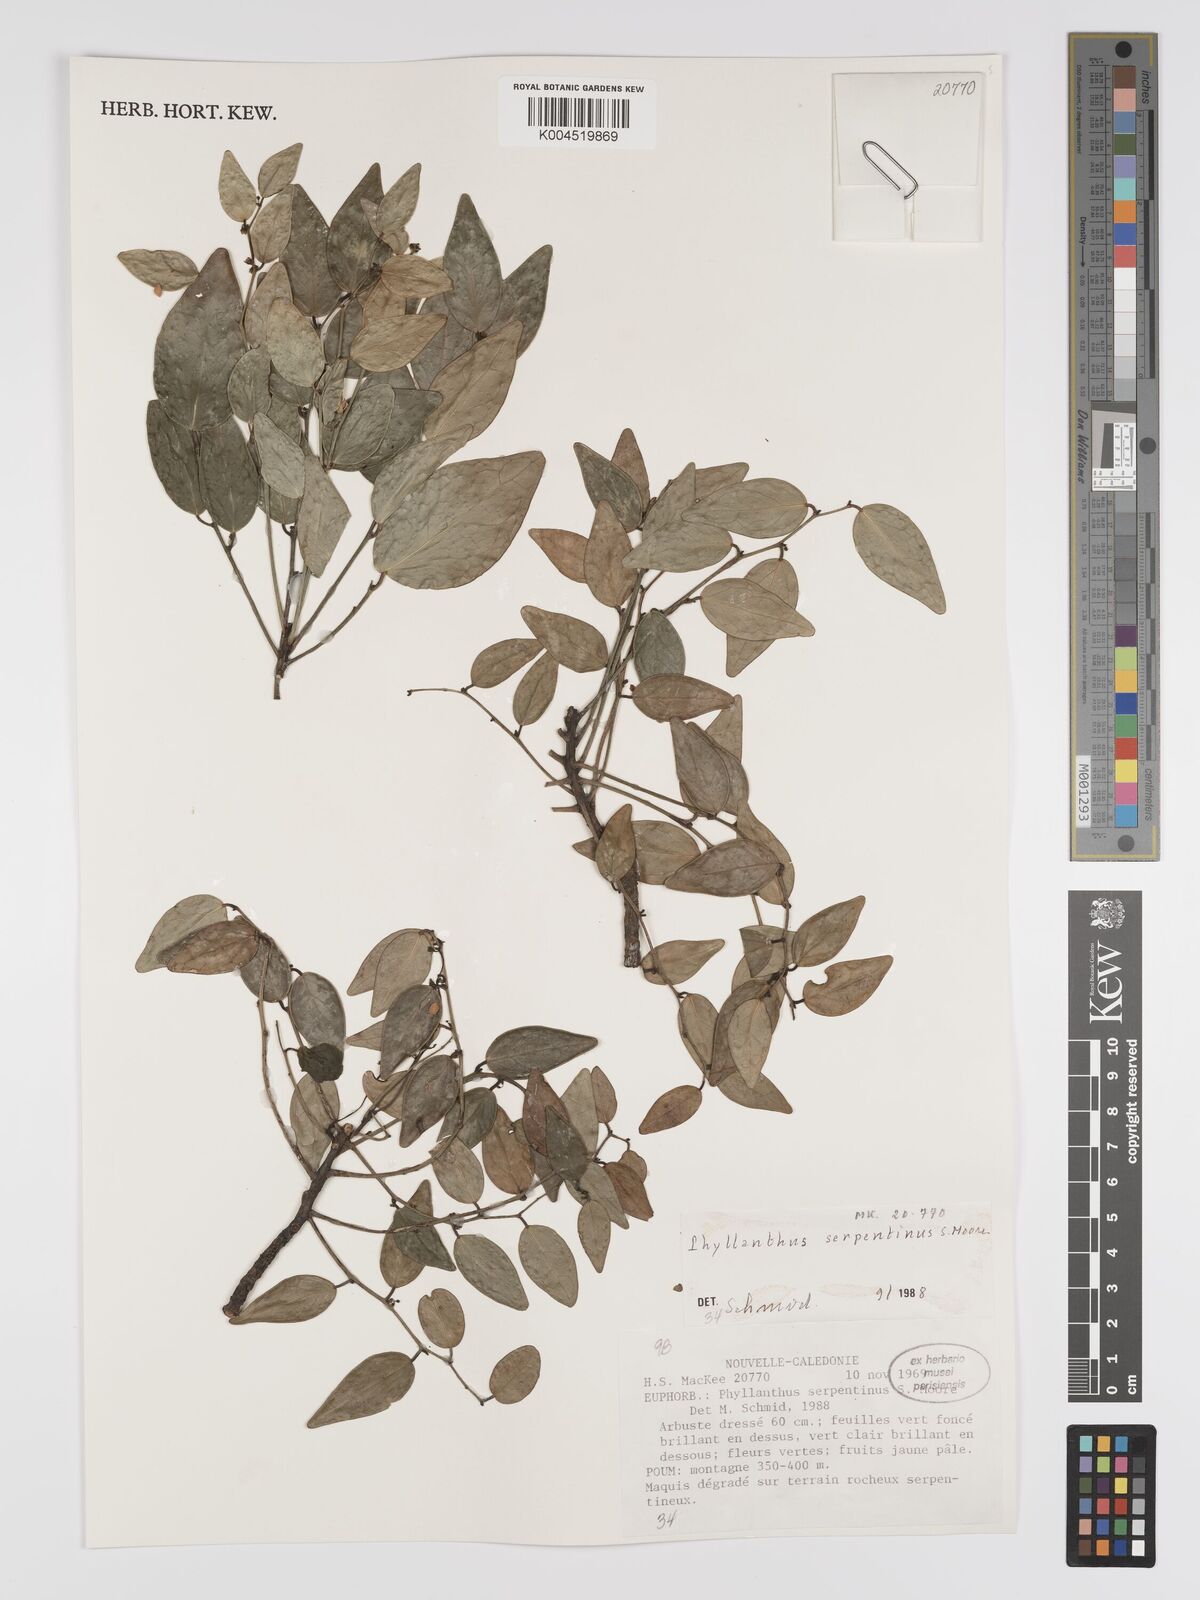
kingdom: Plantae
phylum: Tracheophyta
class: Magnoliopsida
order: Malpighiales
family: Phyllanthaceae
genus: Phyllanthus
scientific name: Phyllanthus serpentinus
